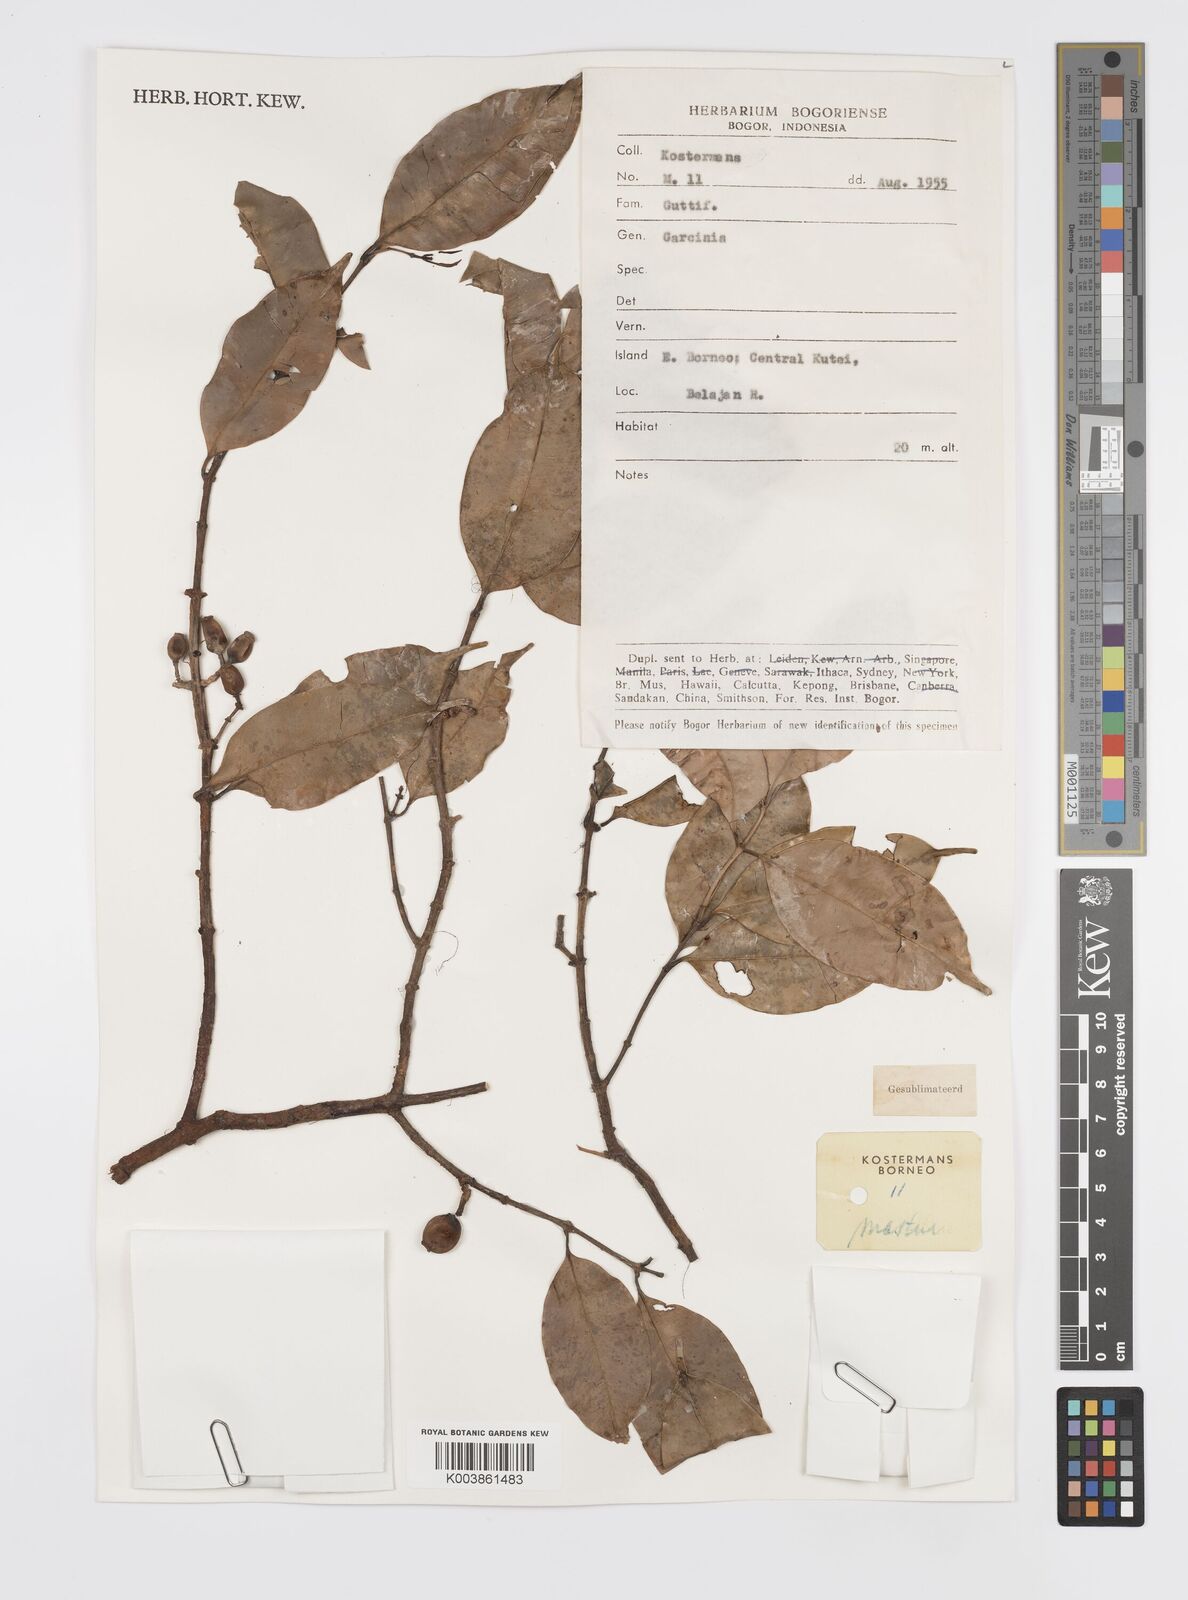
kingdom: Plantae
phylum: Tracheophyta
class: Magnoliopsida
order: Malpighiales
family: Clusiaceae
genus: Garcinia
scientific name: Garcinia
